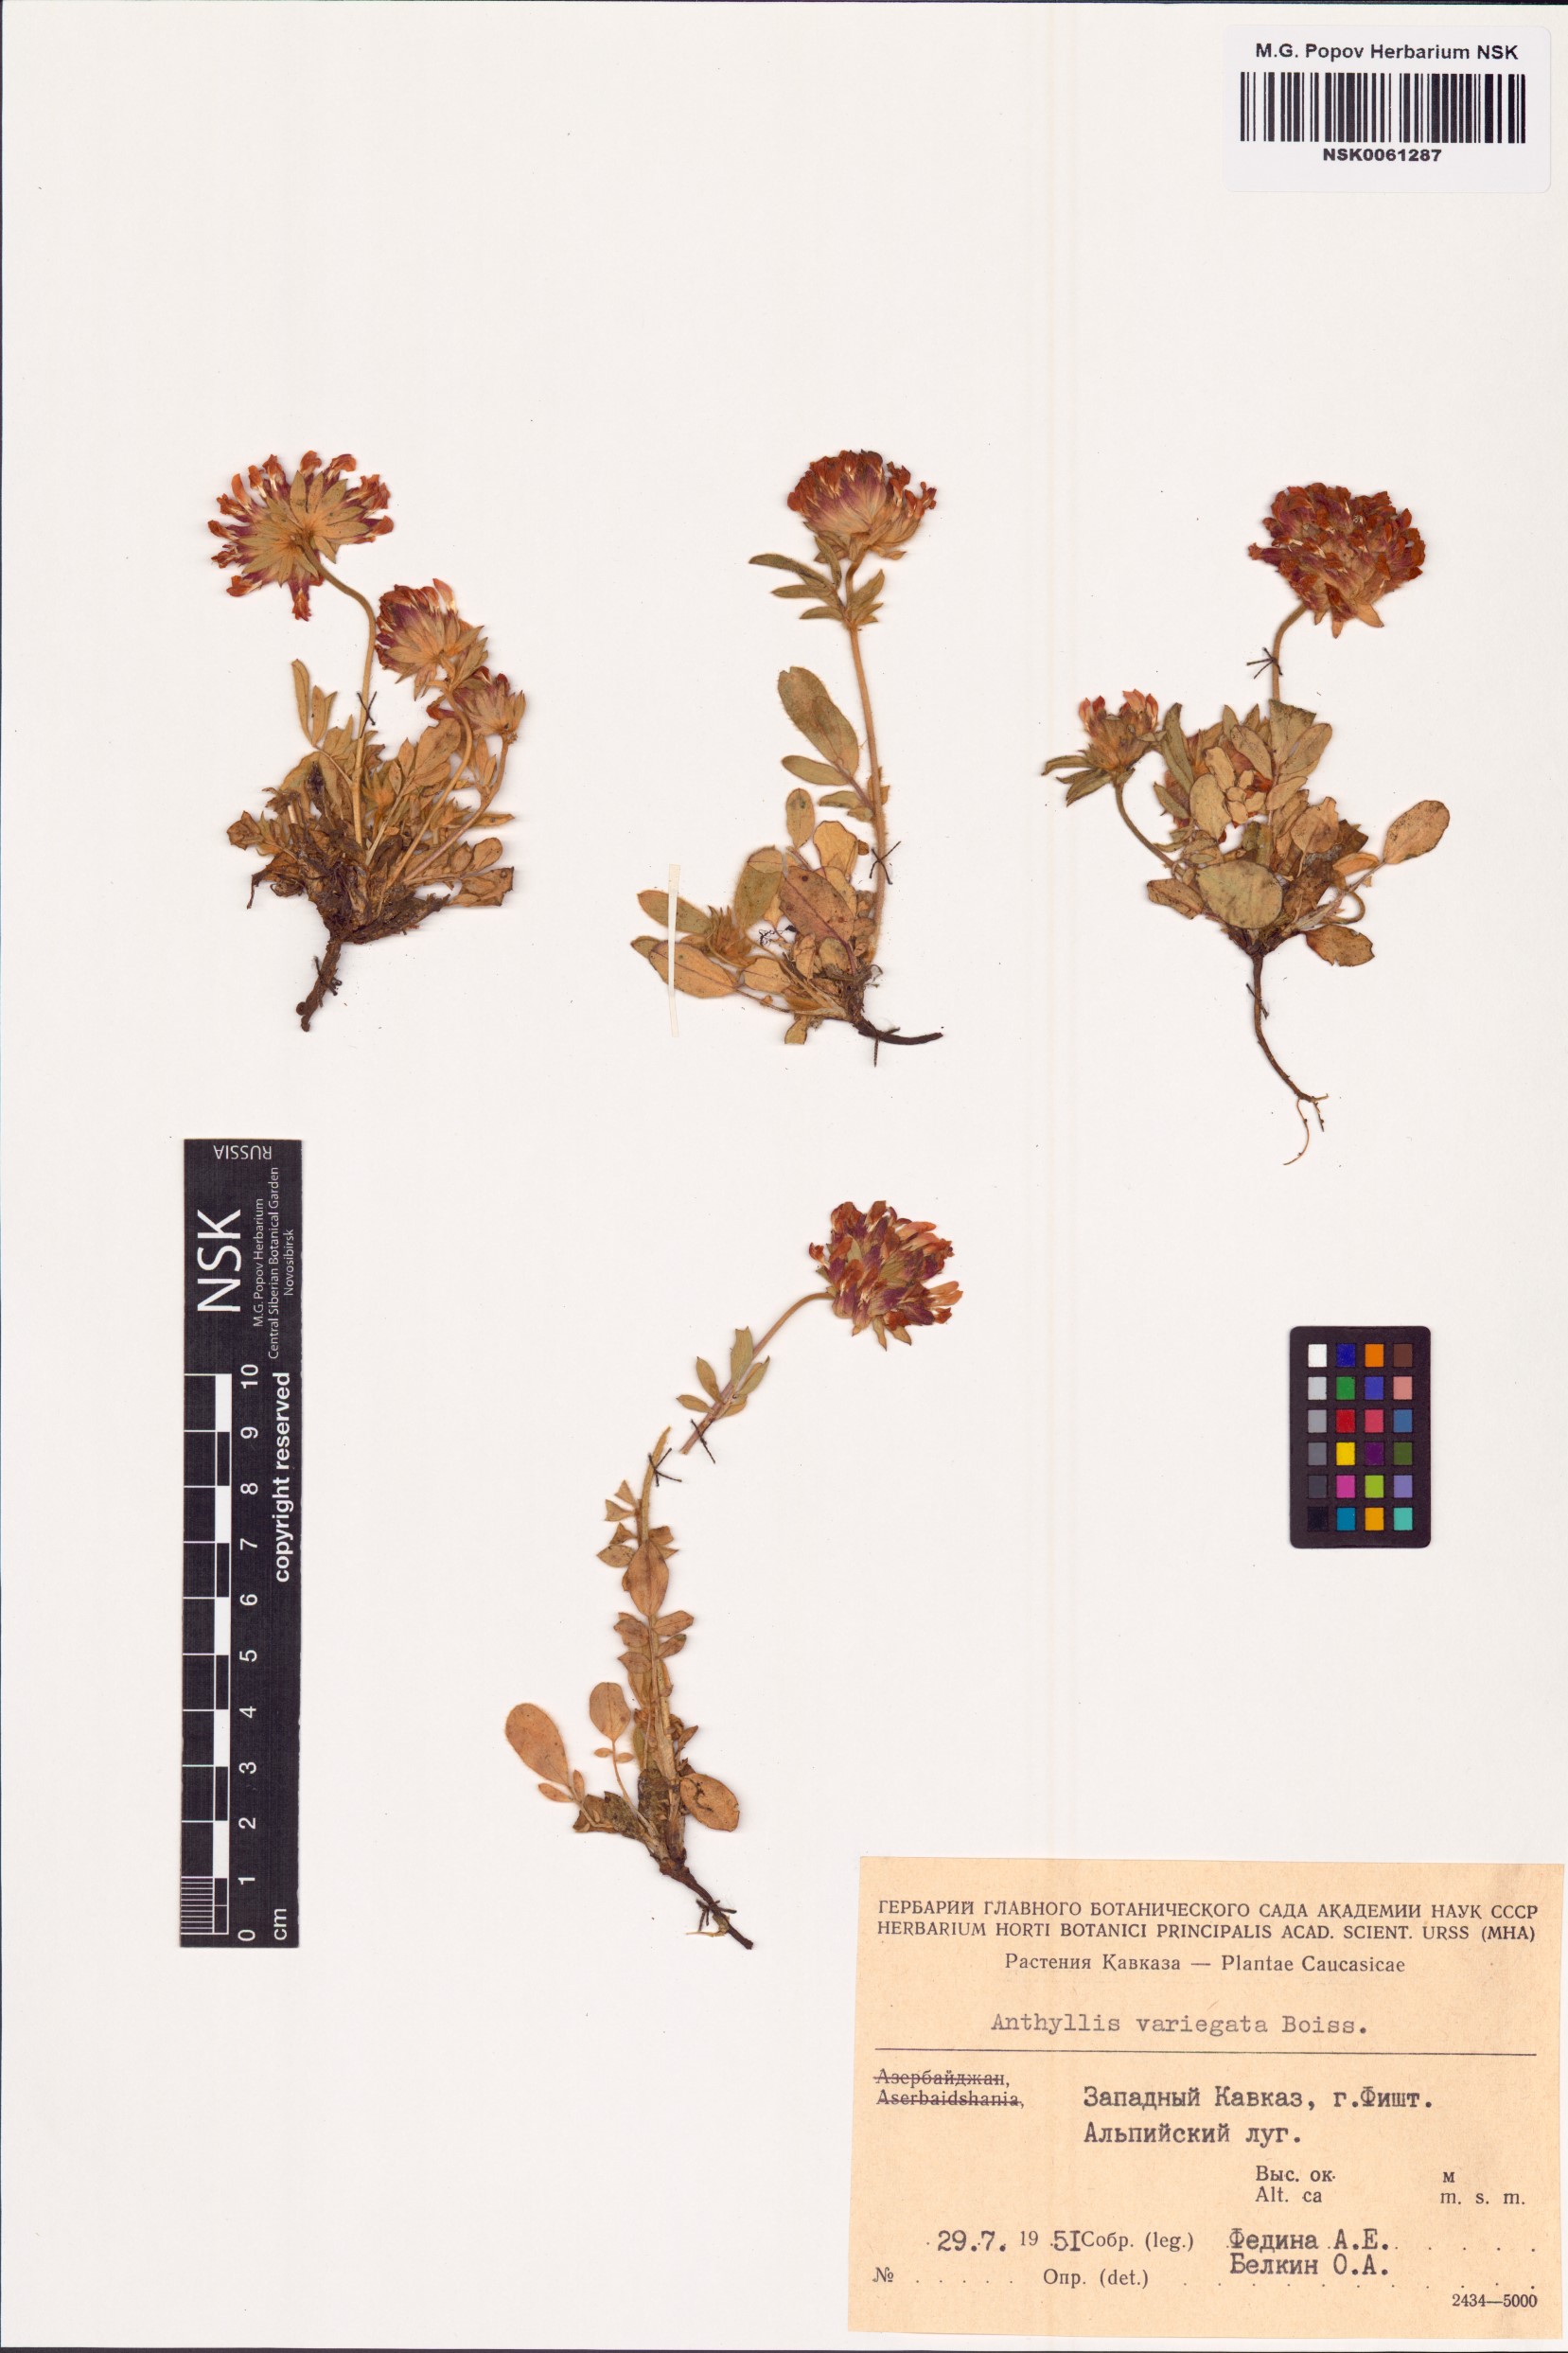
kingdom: Plantae
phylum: Tracheophyta
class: Magnoliopsida
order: Fabales
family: Fabaceae
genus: Anthyllis
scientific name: Anthyllis variegata
